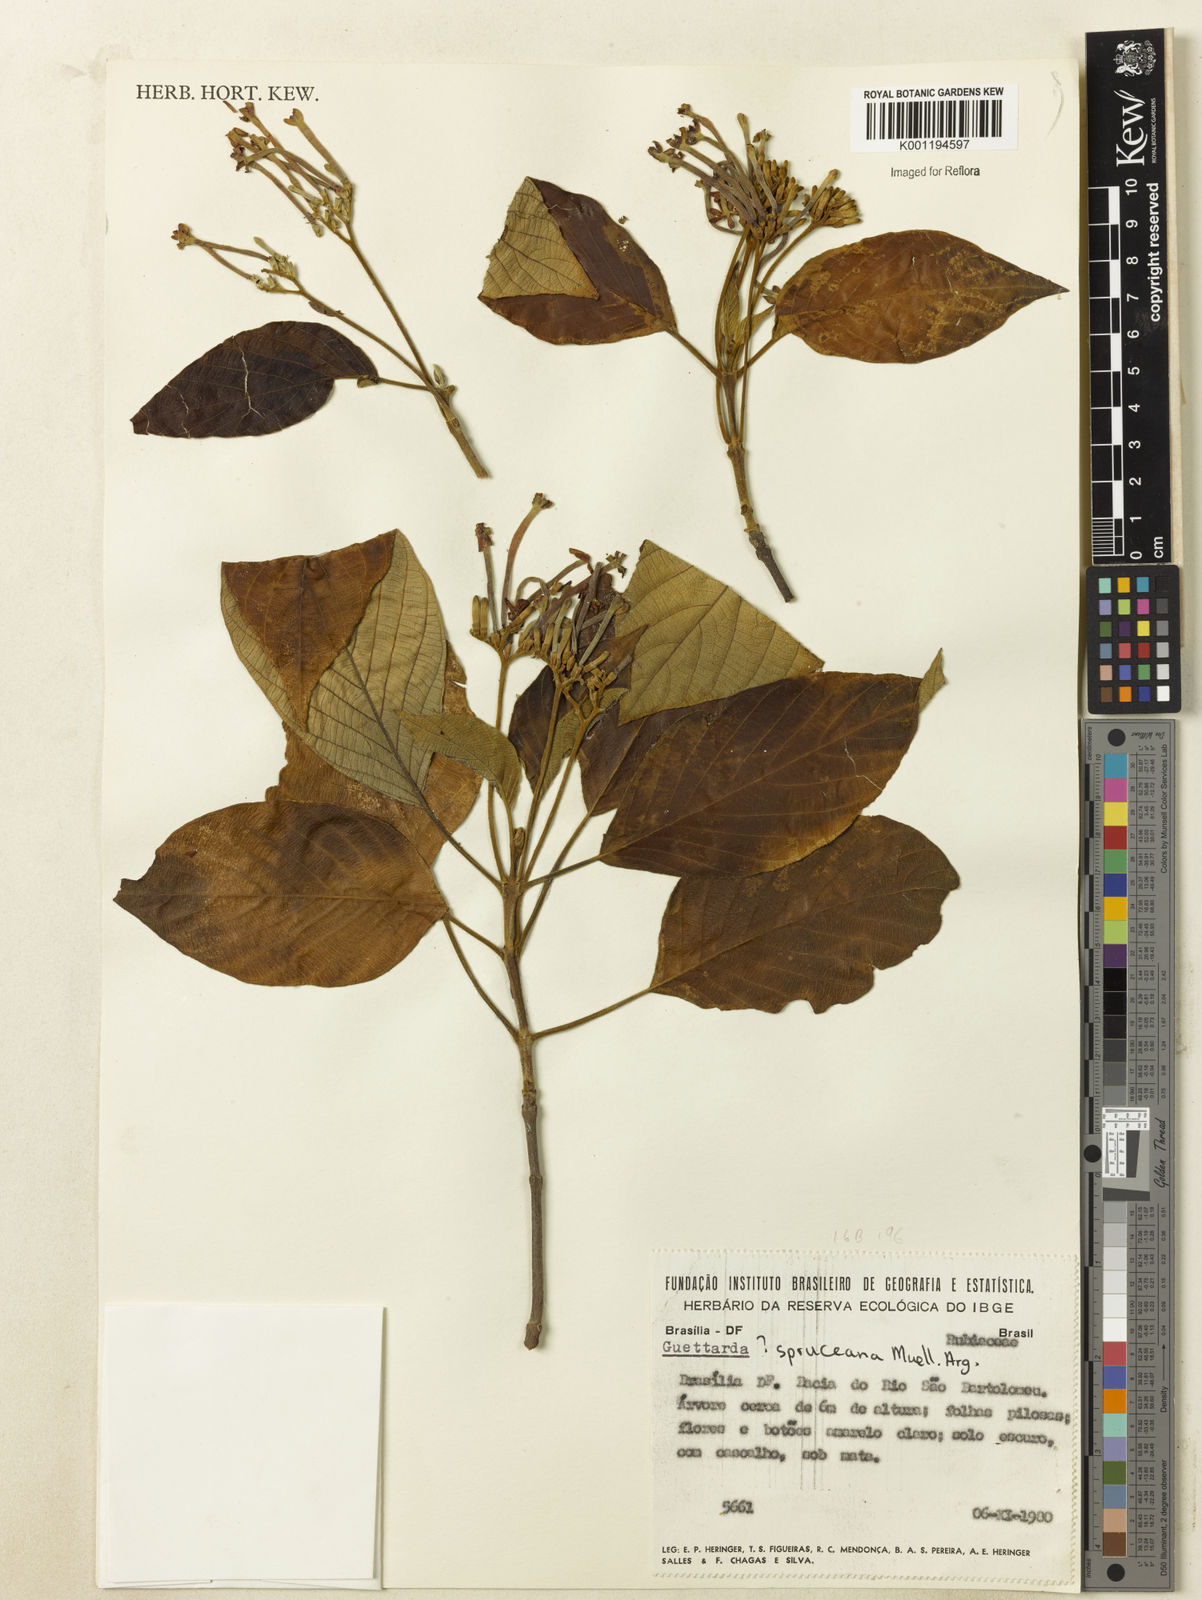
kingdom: Plantae
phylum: Tracheophyta
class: Magnoliopsida
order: Gentianales
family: Rubiaceae
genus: Guettarda
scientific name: Guettarda
